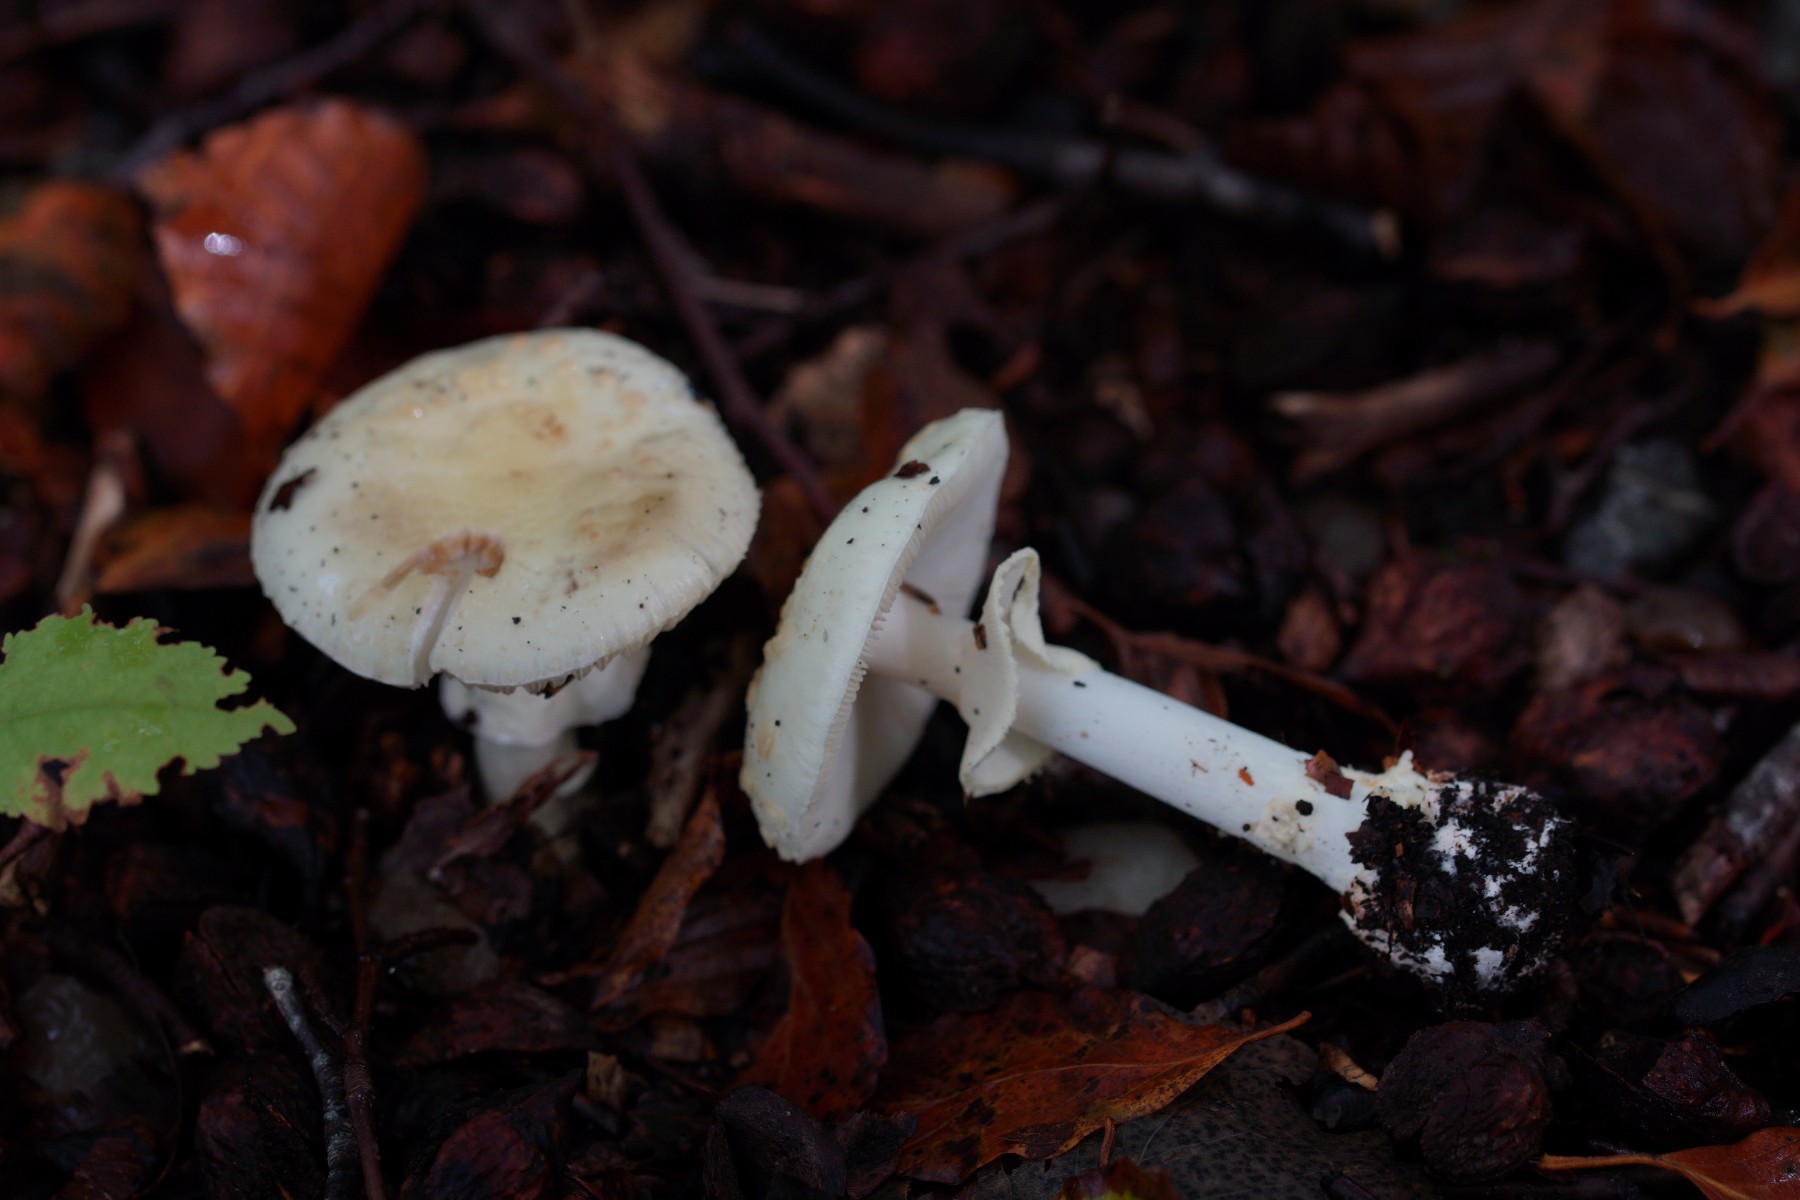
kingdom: Fungi
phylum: Basidiomycota
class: Agaricomycetes
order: Agaricales
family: Amanitaceae
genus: Amanita
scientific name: Amanita citrina
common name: kugleknoldet fluesvamp
